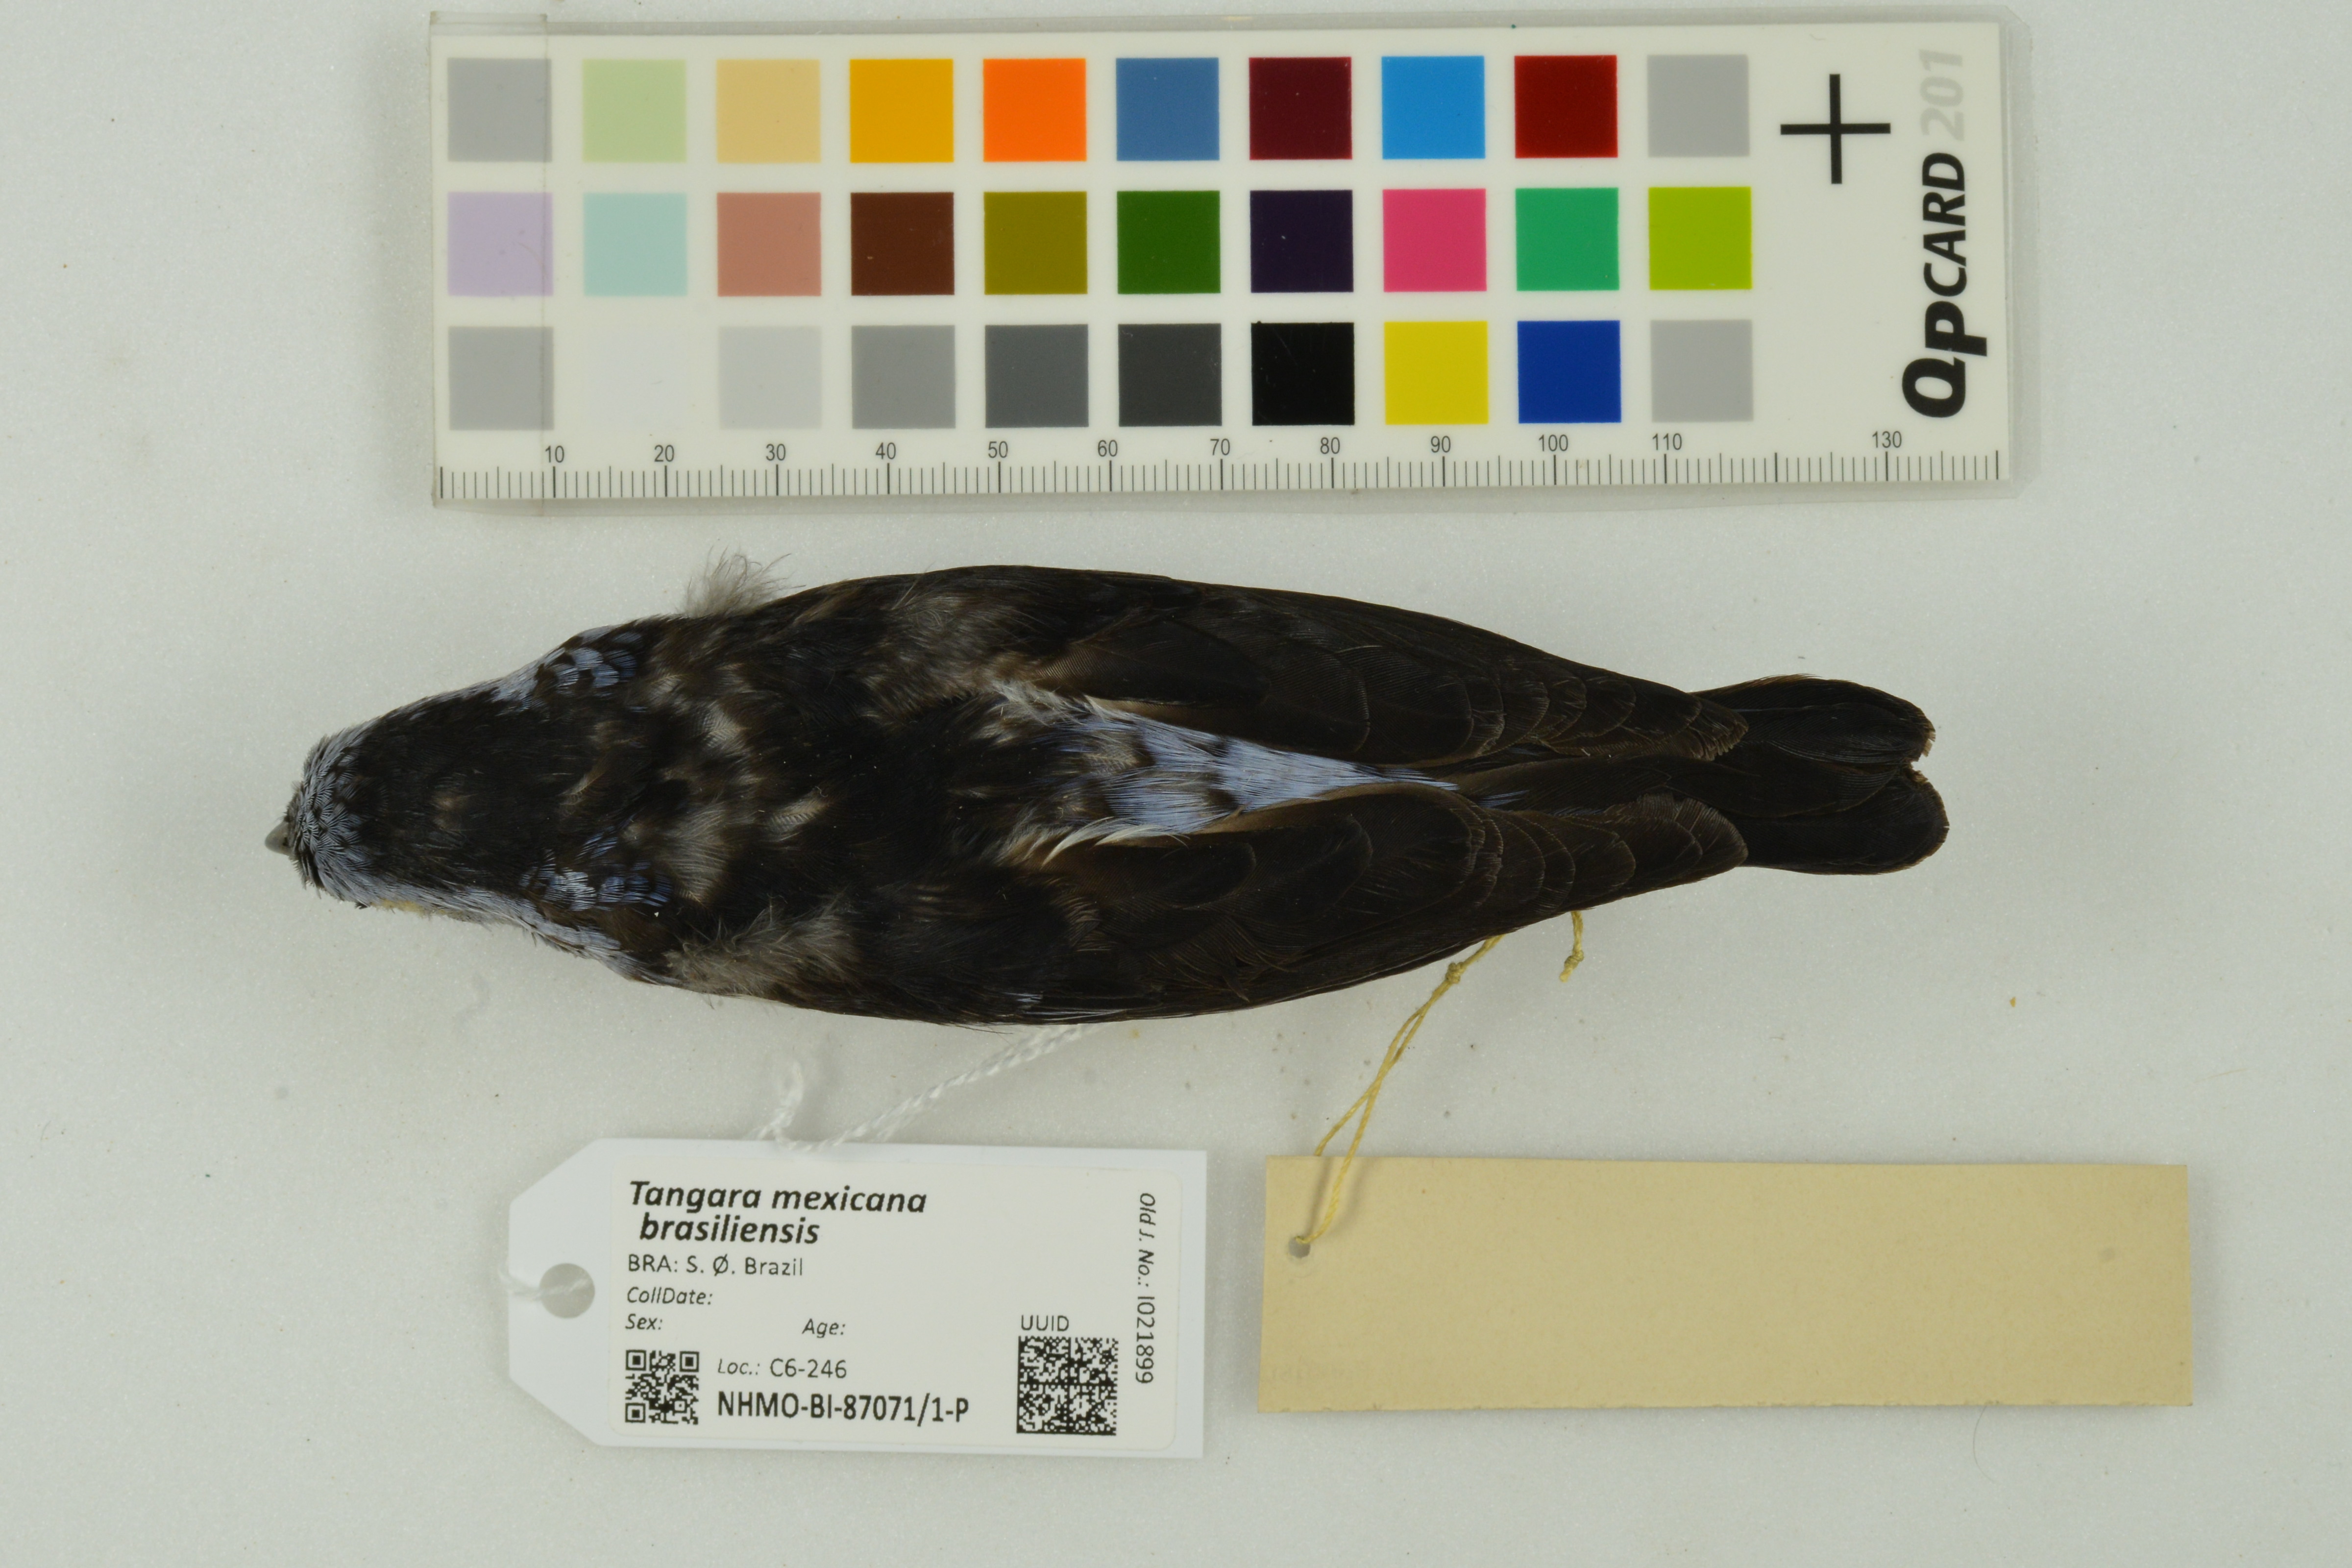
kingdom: Animalia
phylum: Chordata
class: Aves
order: Passeriformes
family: Thraupidae
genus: Tangara
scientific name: Tangara mexicana
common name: Turquoise tanager
